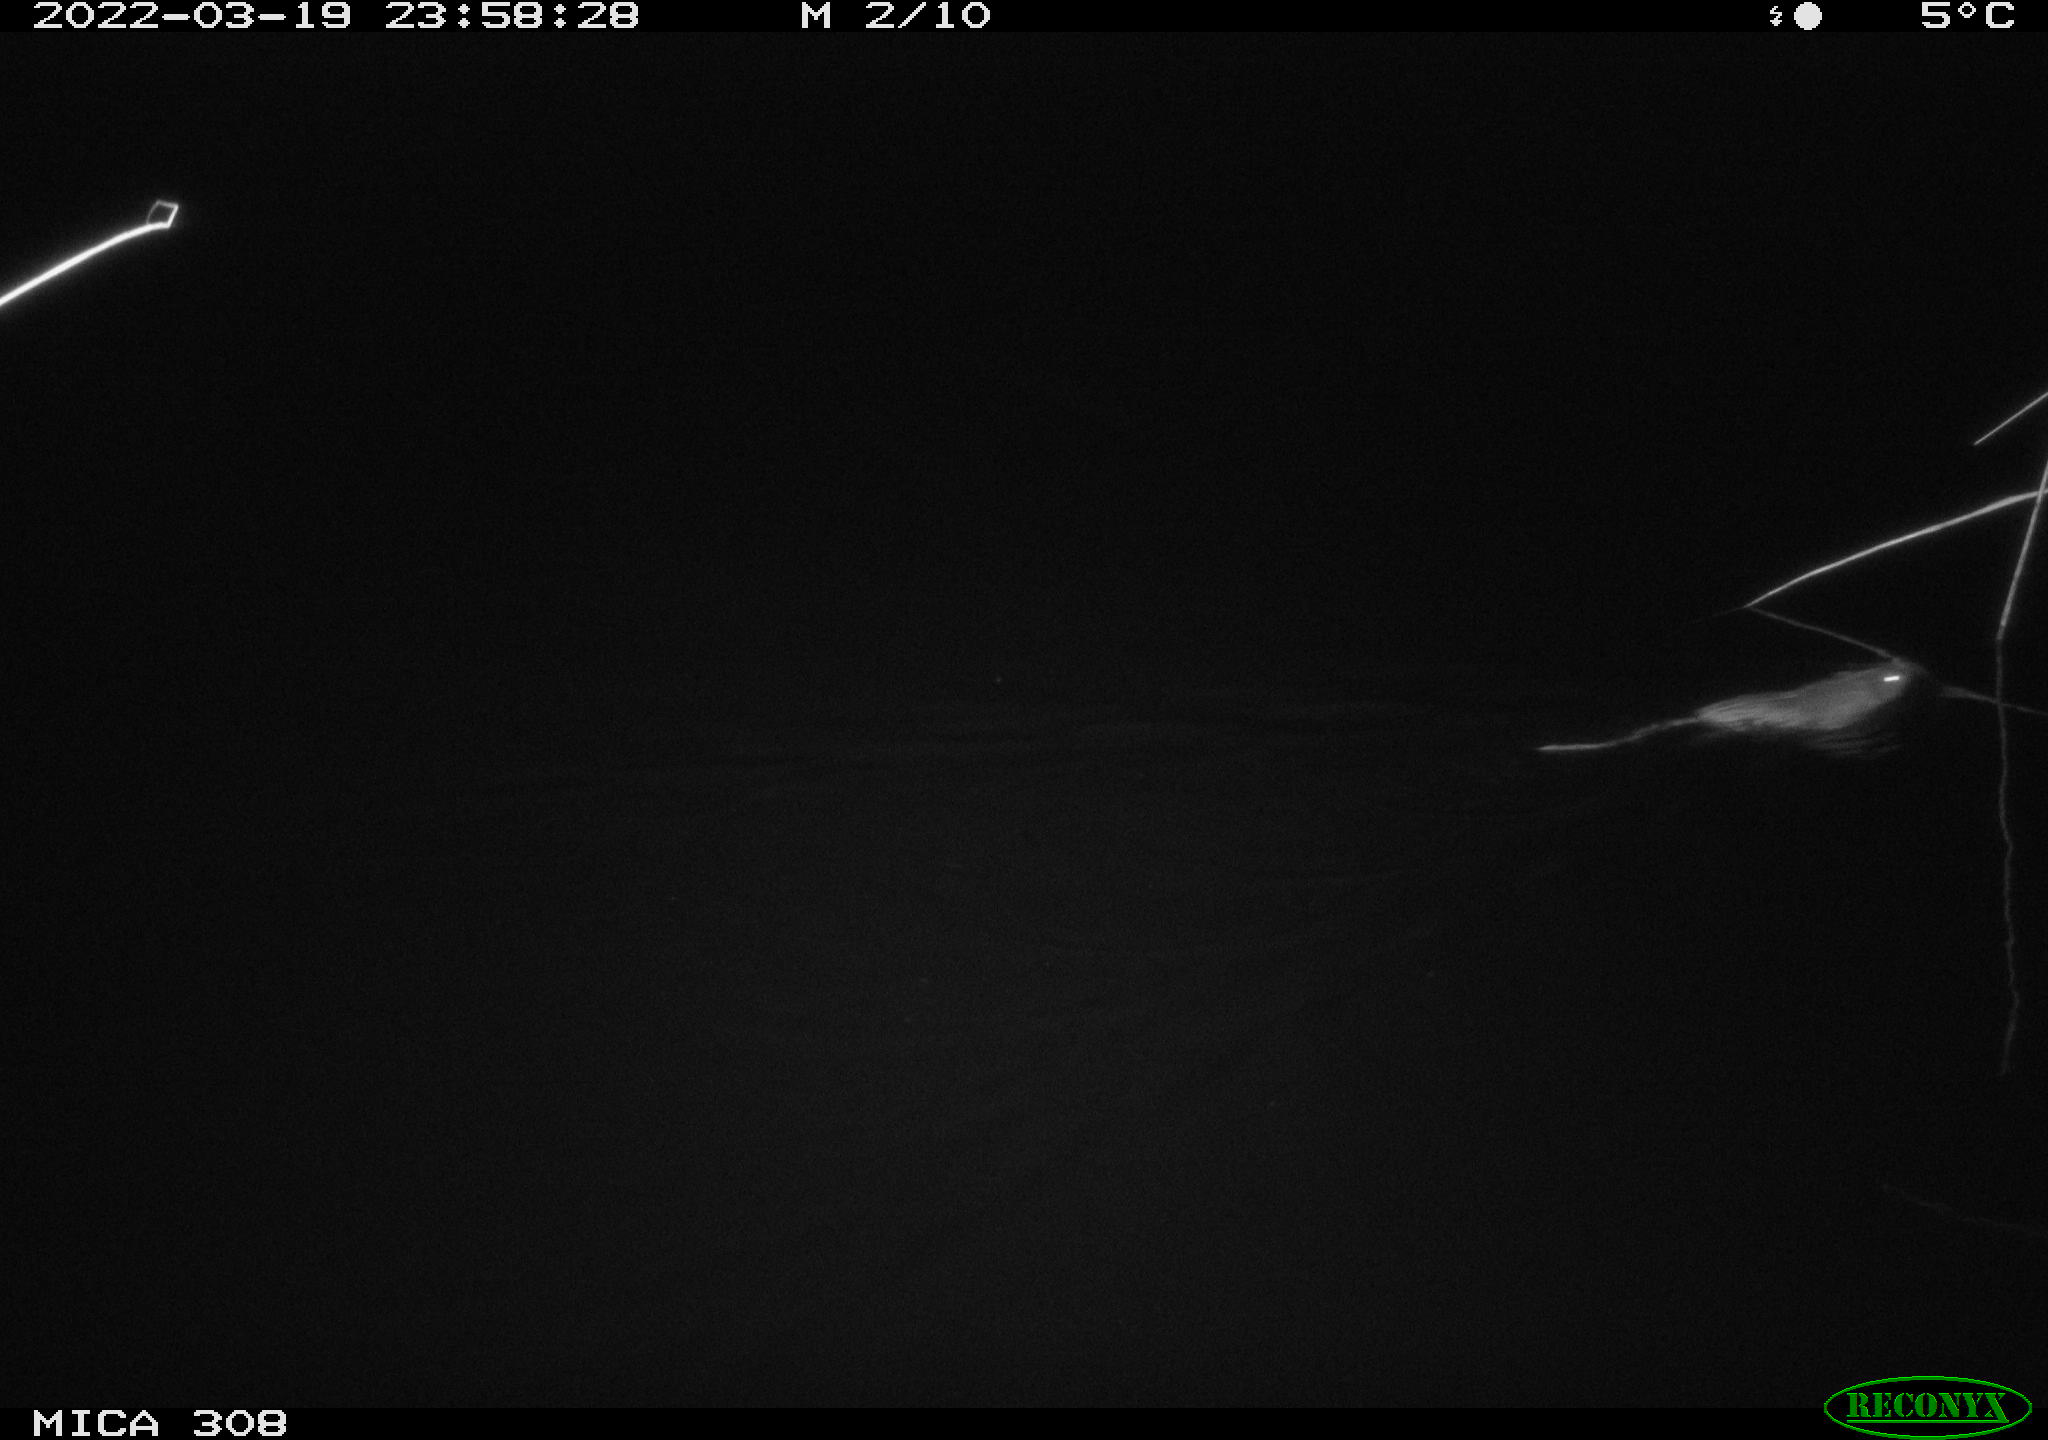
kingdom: Animalia
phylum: Chordata
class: Mammalia
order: Rodentia
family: Cricetidae
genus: Ondatra
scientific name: Ondatra zibethicus
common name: Muskrat
